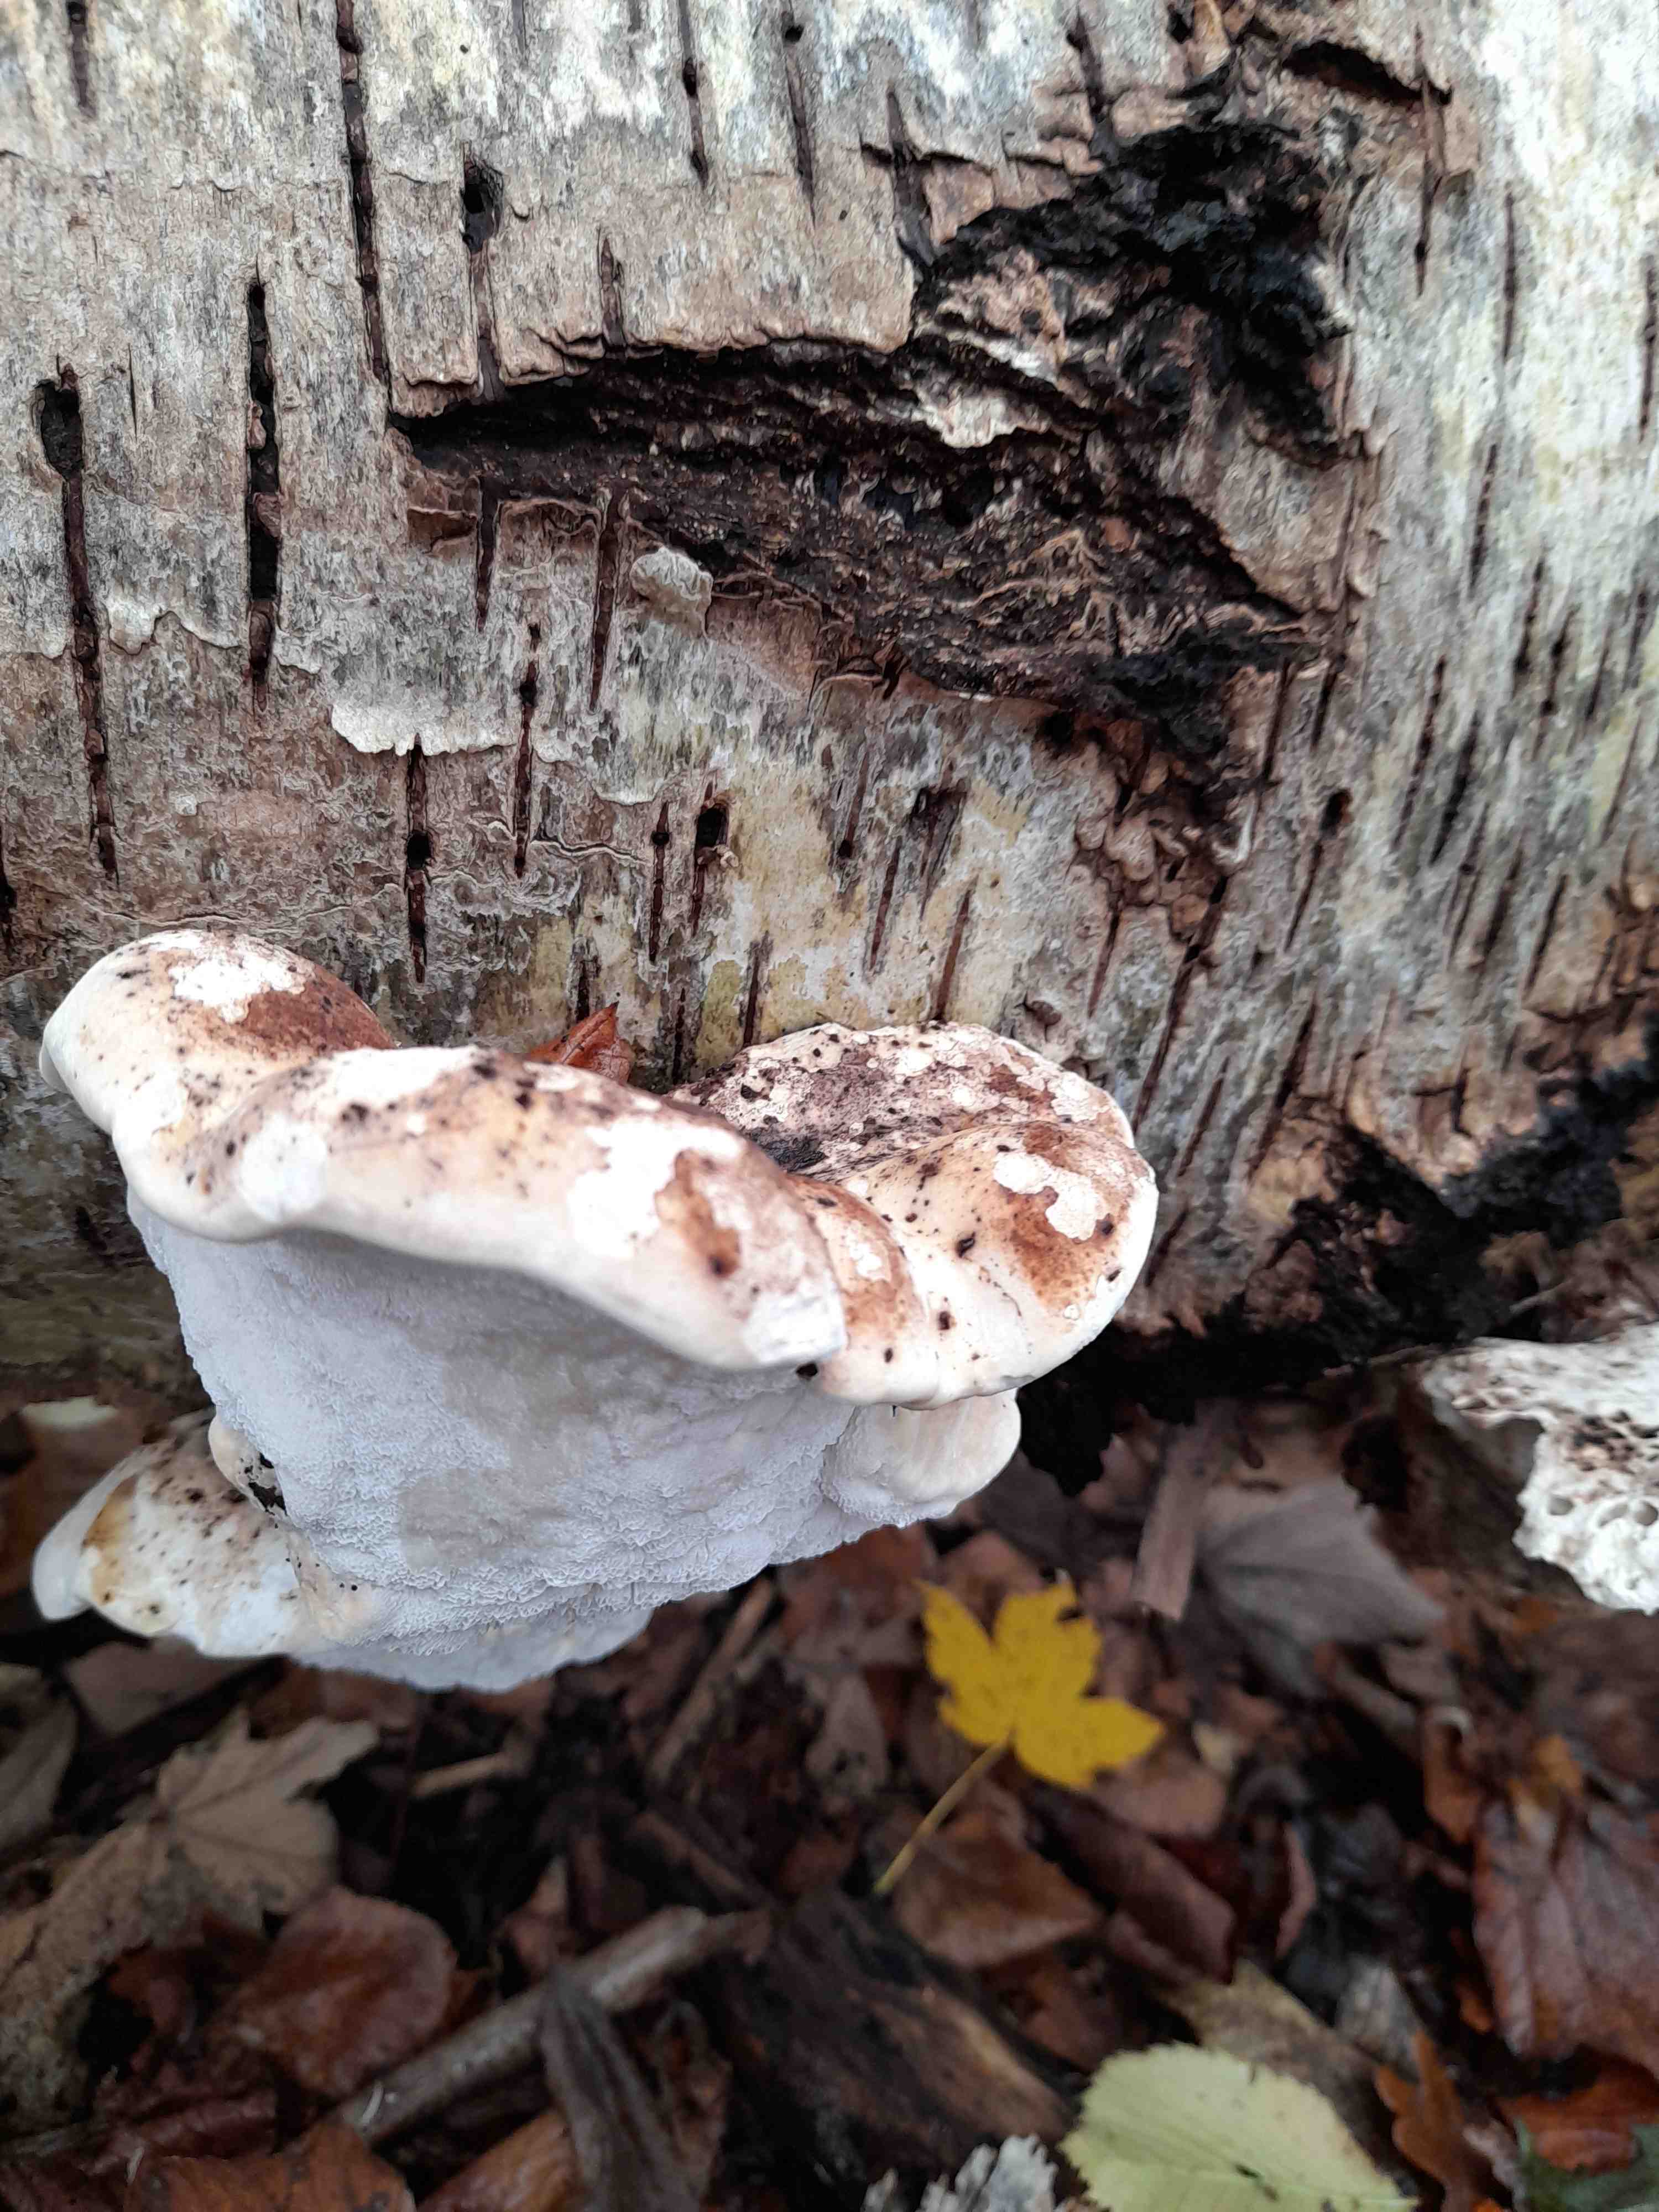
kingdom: Fungi
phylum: Basidiomycota
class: Agaricomycetes
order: Polyporales
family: Fomitopsidaceae
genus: Fomitopsis
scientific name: Fomitopsis betulina
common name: birkeporesvamp
